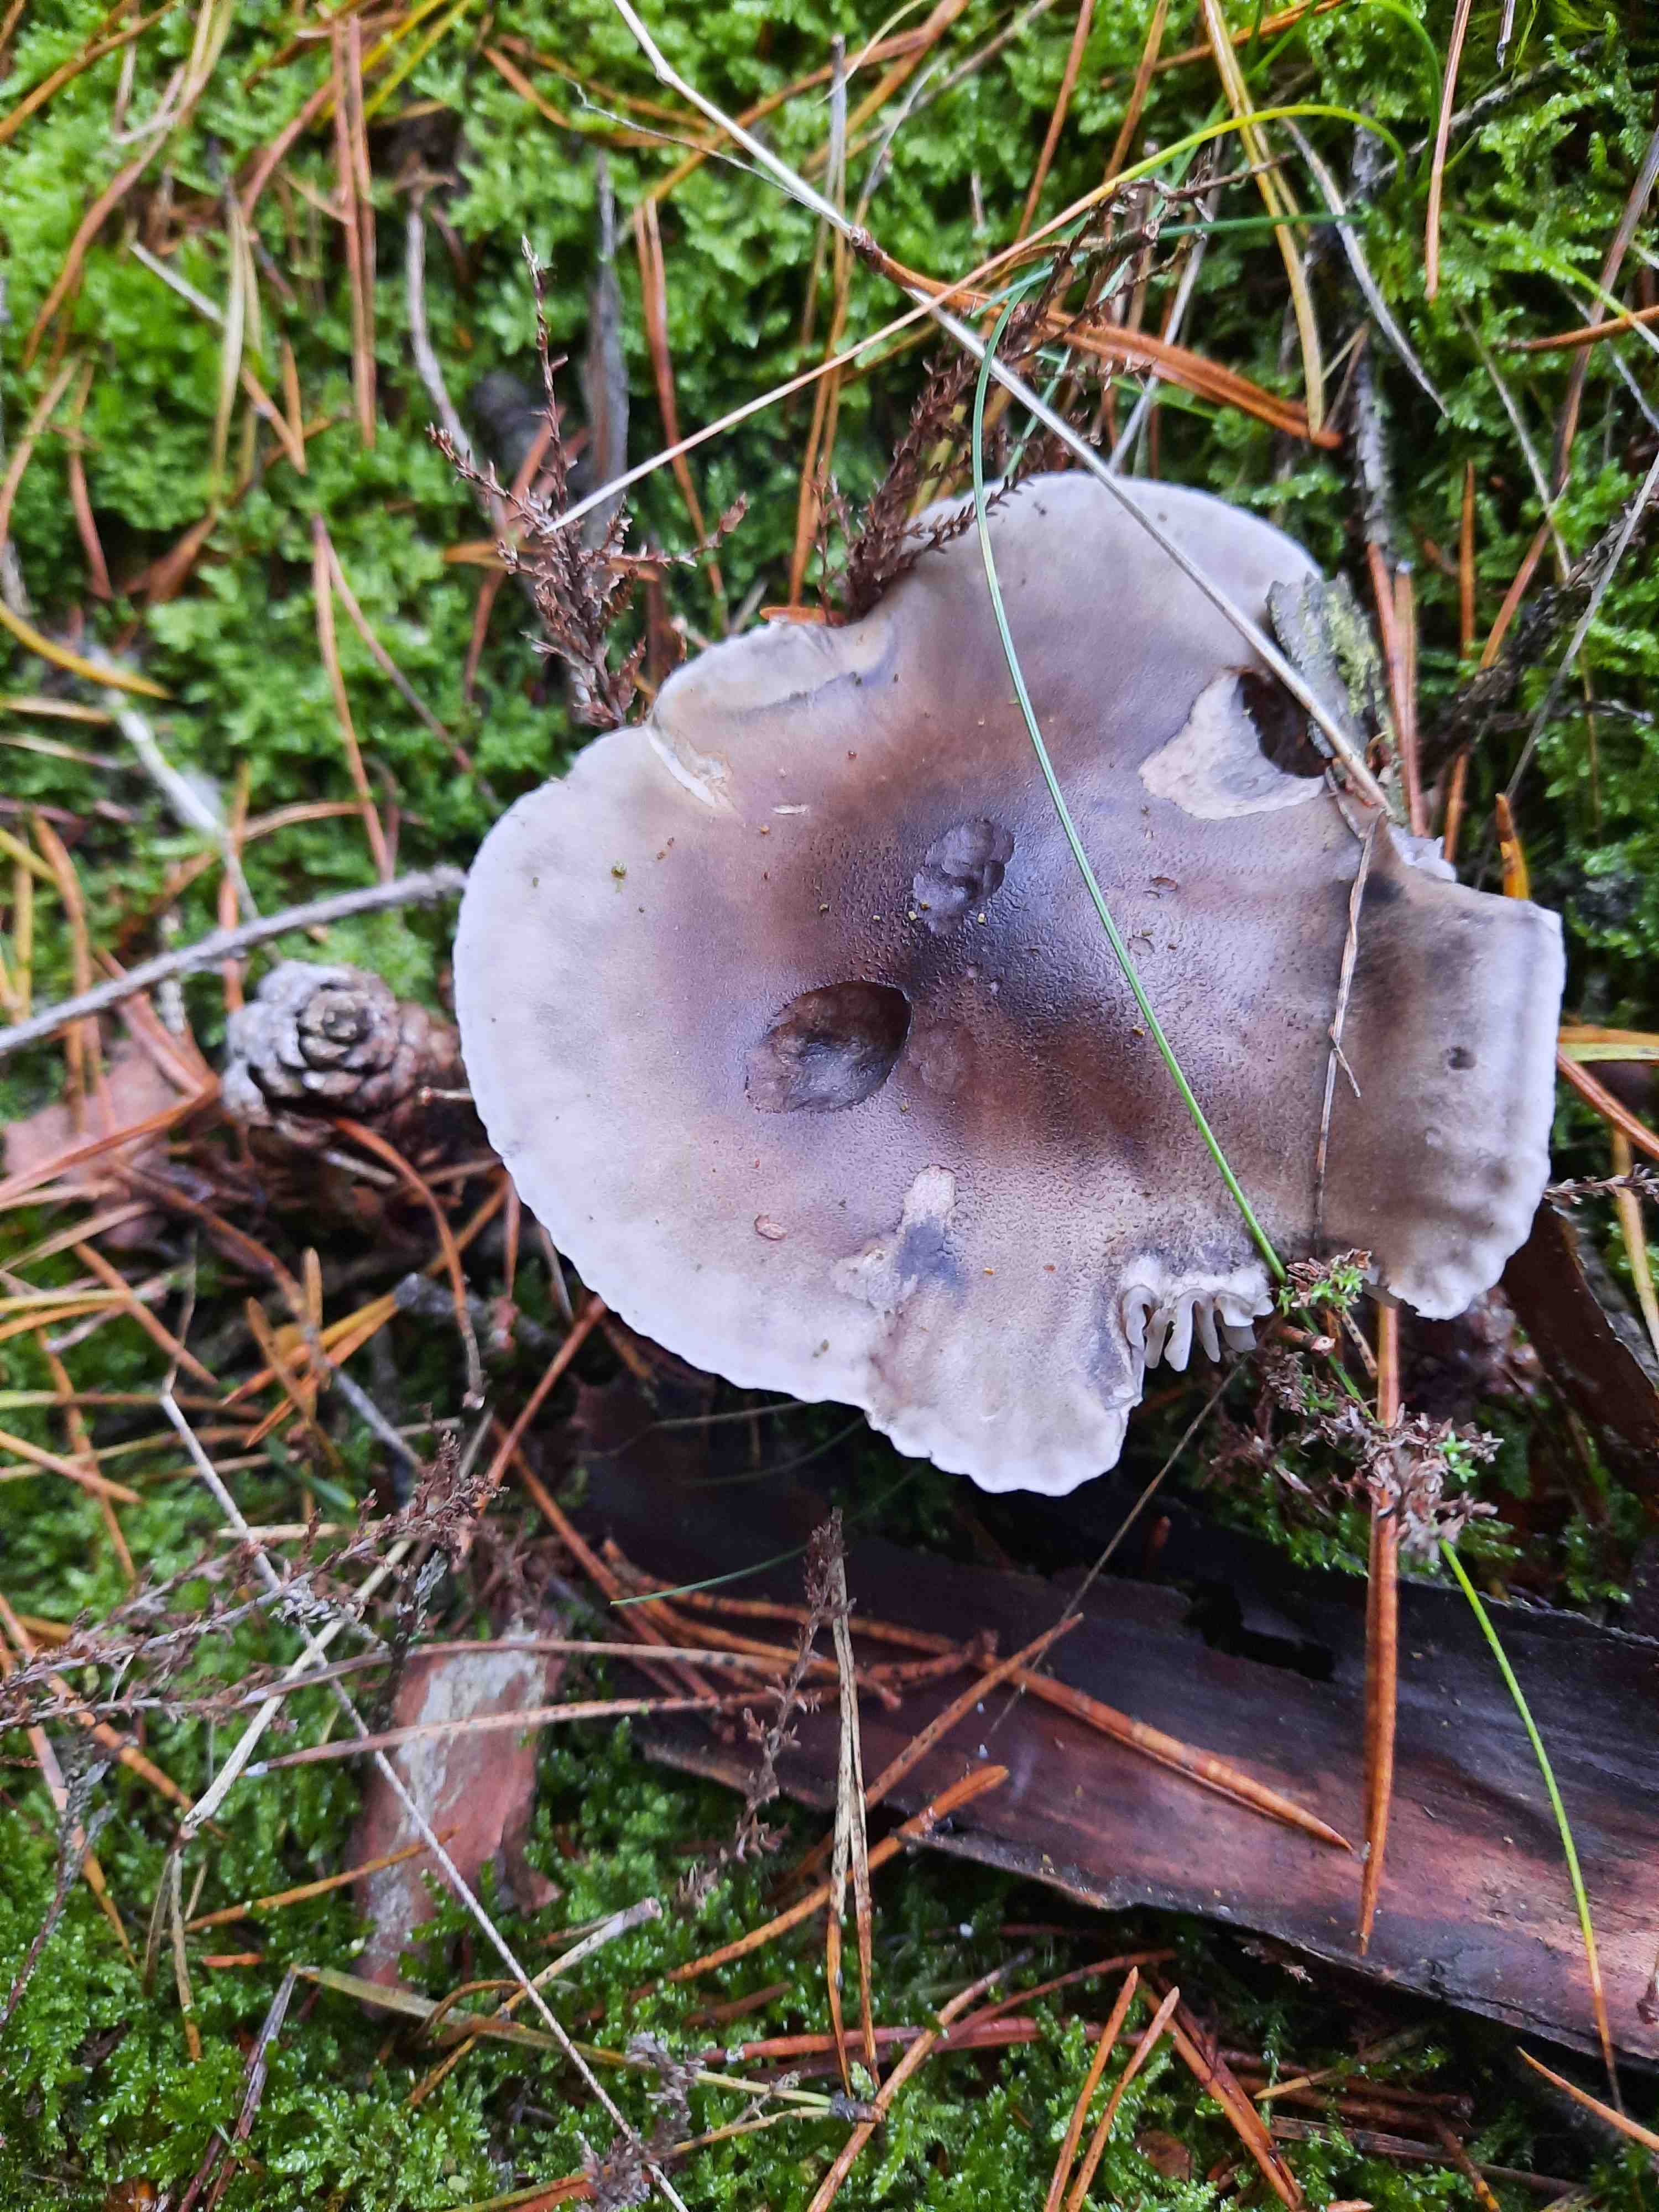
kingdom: Fungi
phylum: Basidiomycota
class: Agaricomycetes
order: Agaricales
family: Tricholomataceae
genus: Tricholoma
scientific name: Tricholoma sudum
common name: tør ridderhat
